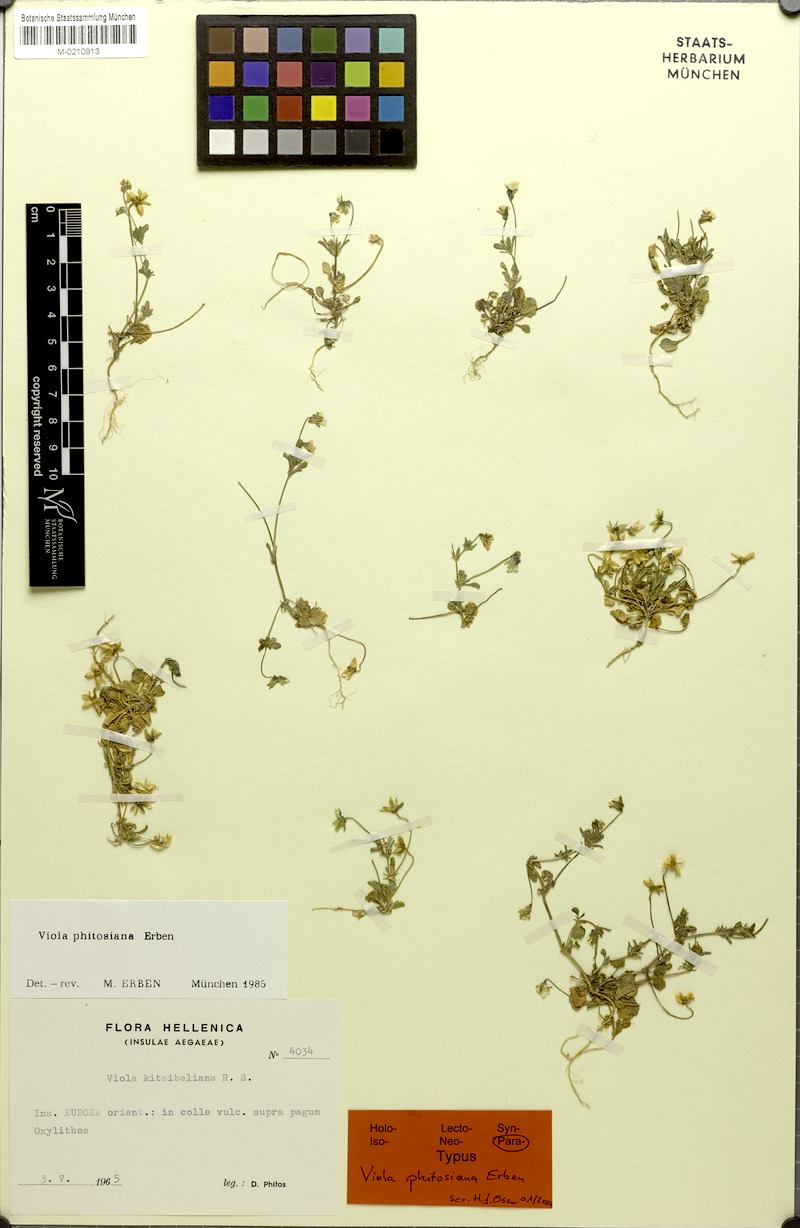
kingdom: Plantae
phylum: Tracheophyta
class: Magnoliopsida
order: Malpighiales
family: Violaceae
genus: Viola
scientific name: Viola phitosiana
